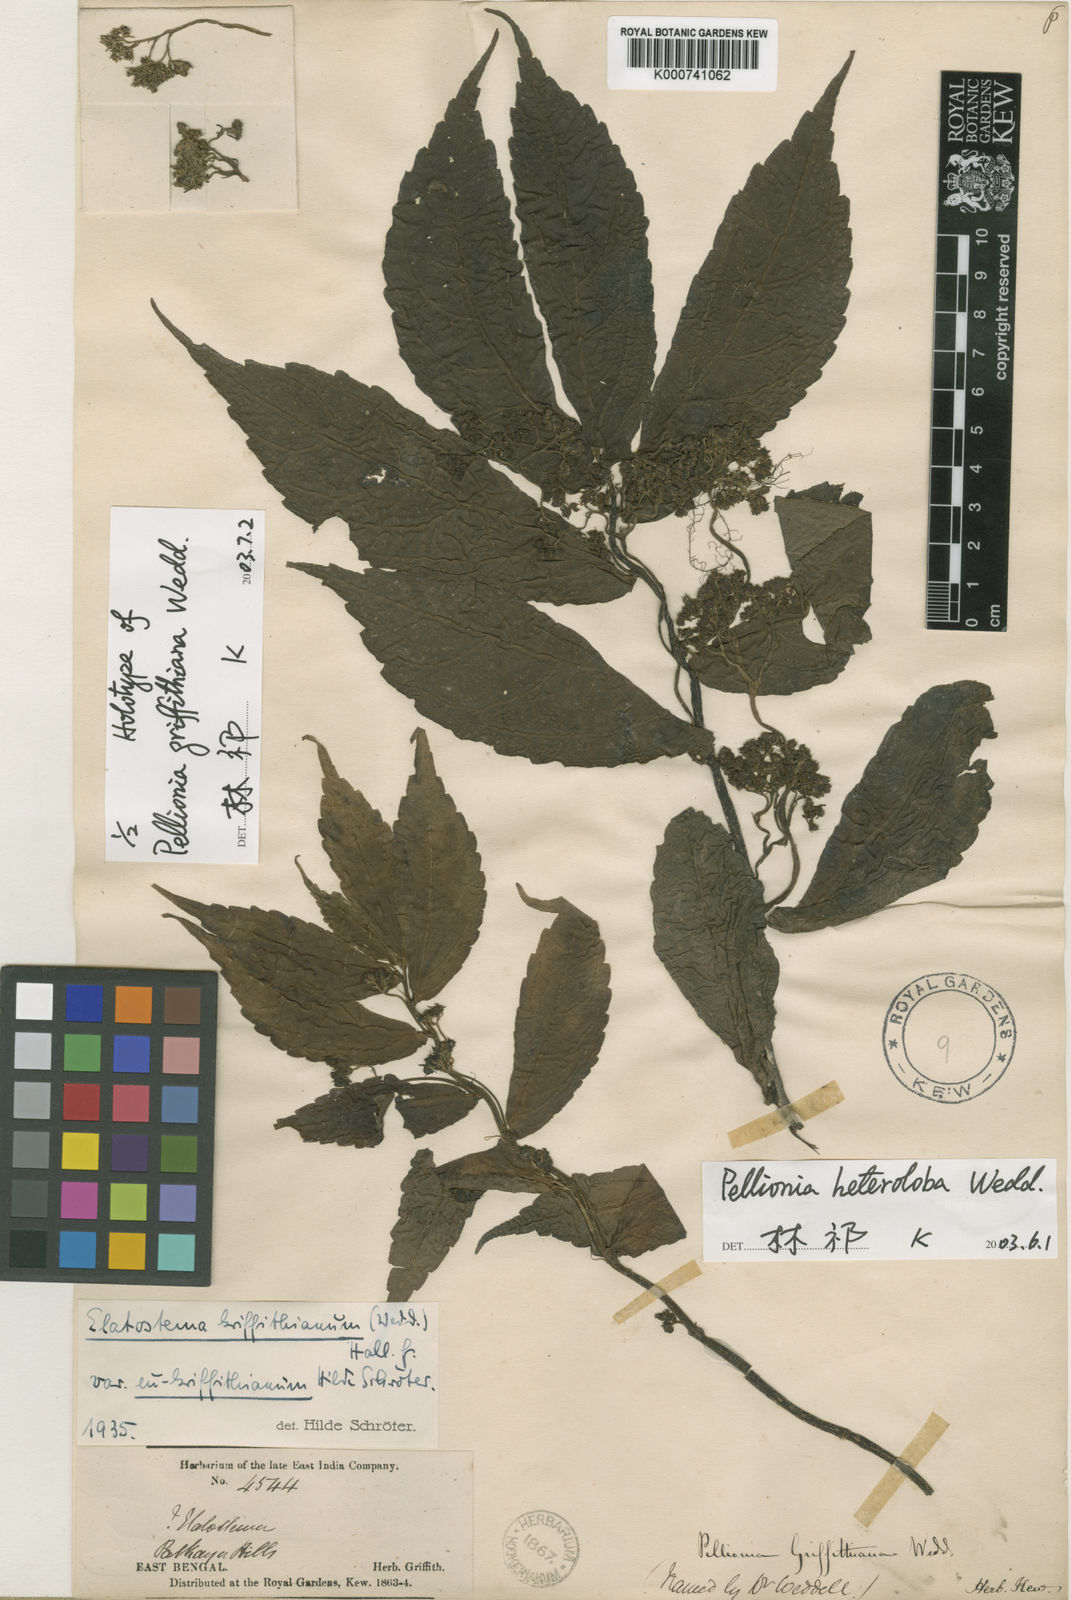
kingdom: Plantae
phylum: Tracheophyta
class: Magnoliopsida
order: Rosales
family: Urticaceae
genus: Elatostema
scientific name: Elatostema heterolobum
